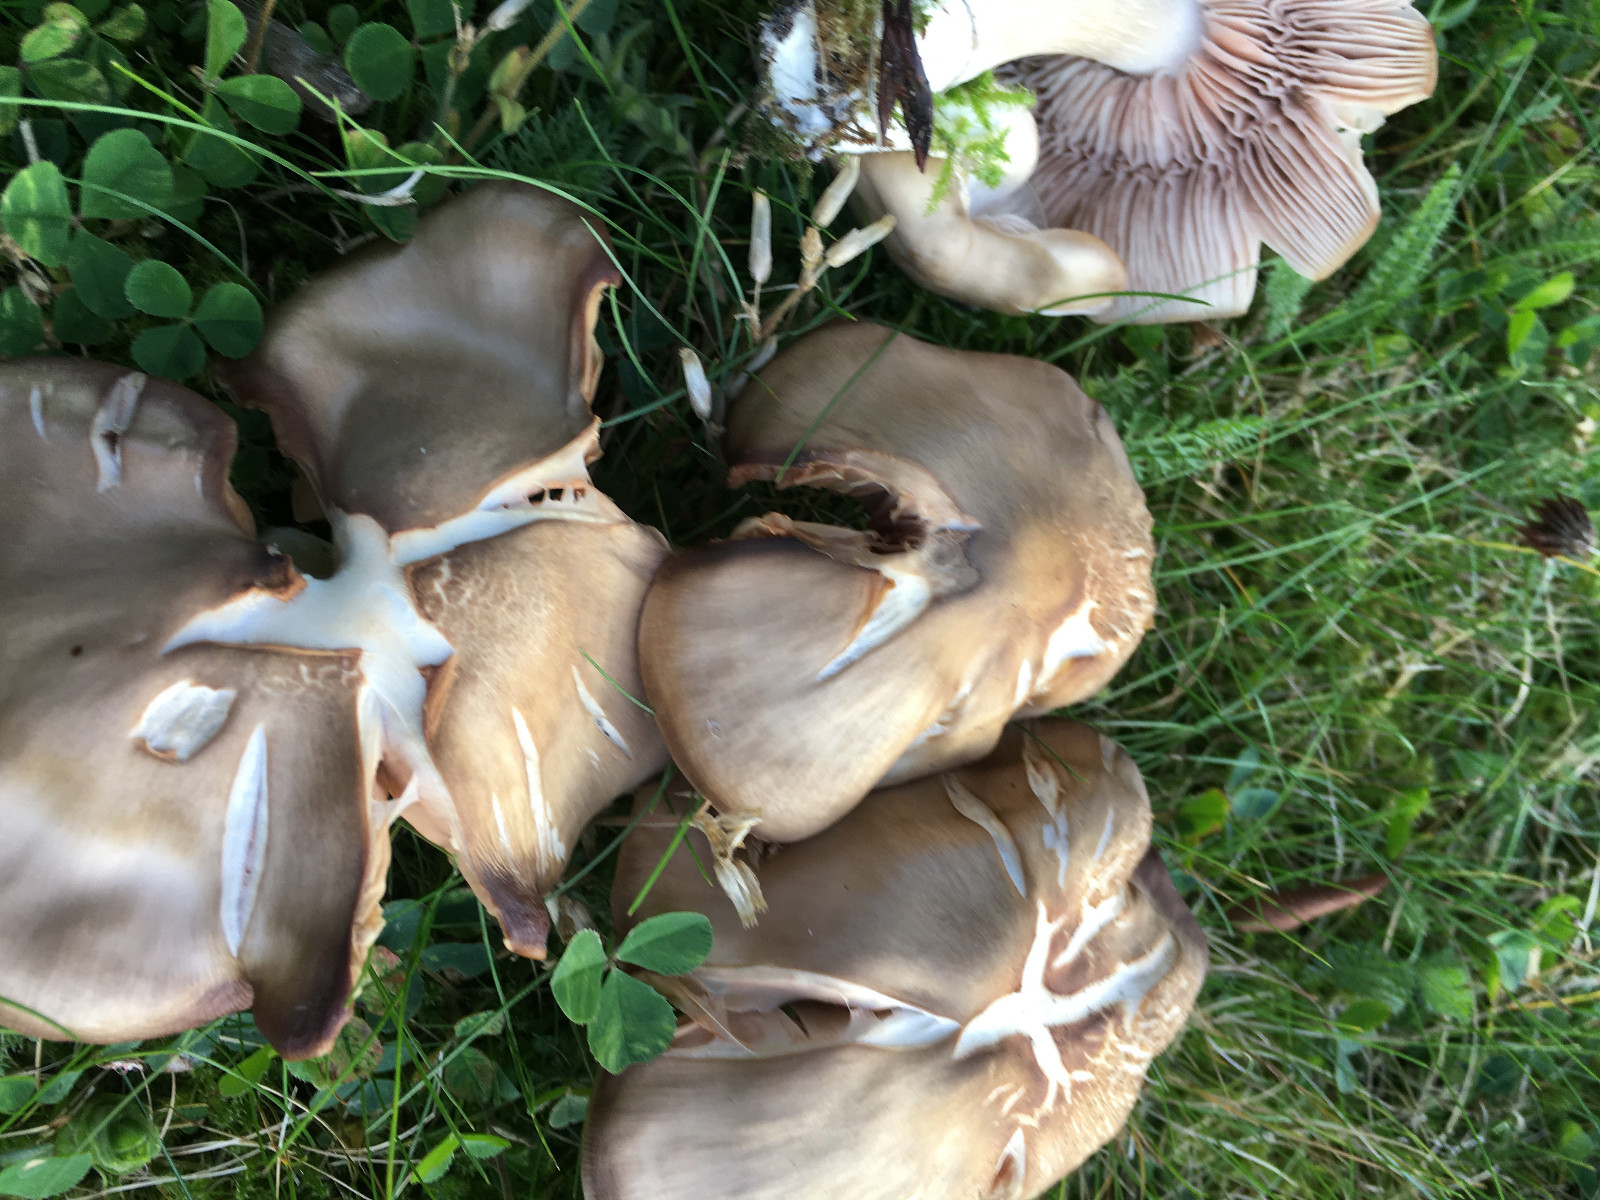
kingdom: Fungi
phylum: Basidiomycota
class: Agaricomycetes
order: Agaricales
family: Entolomataceae
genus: Entoloma
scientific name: Entoloma lividoalbum
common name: lysstokket rødblad
